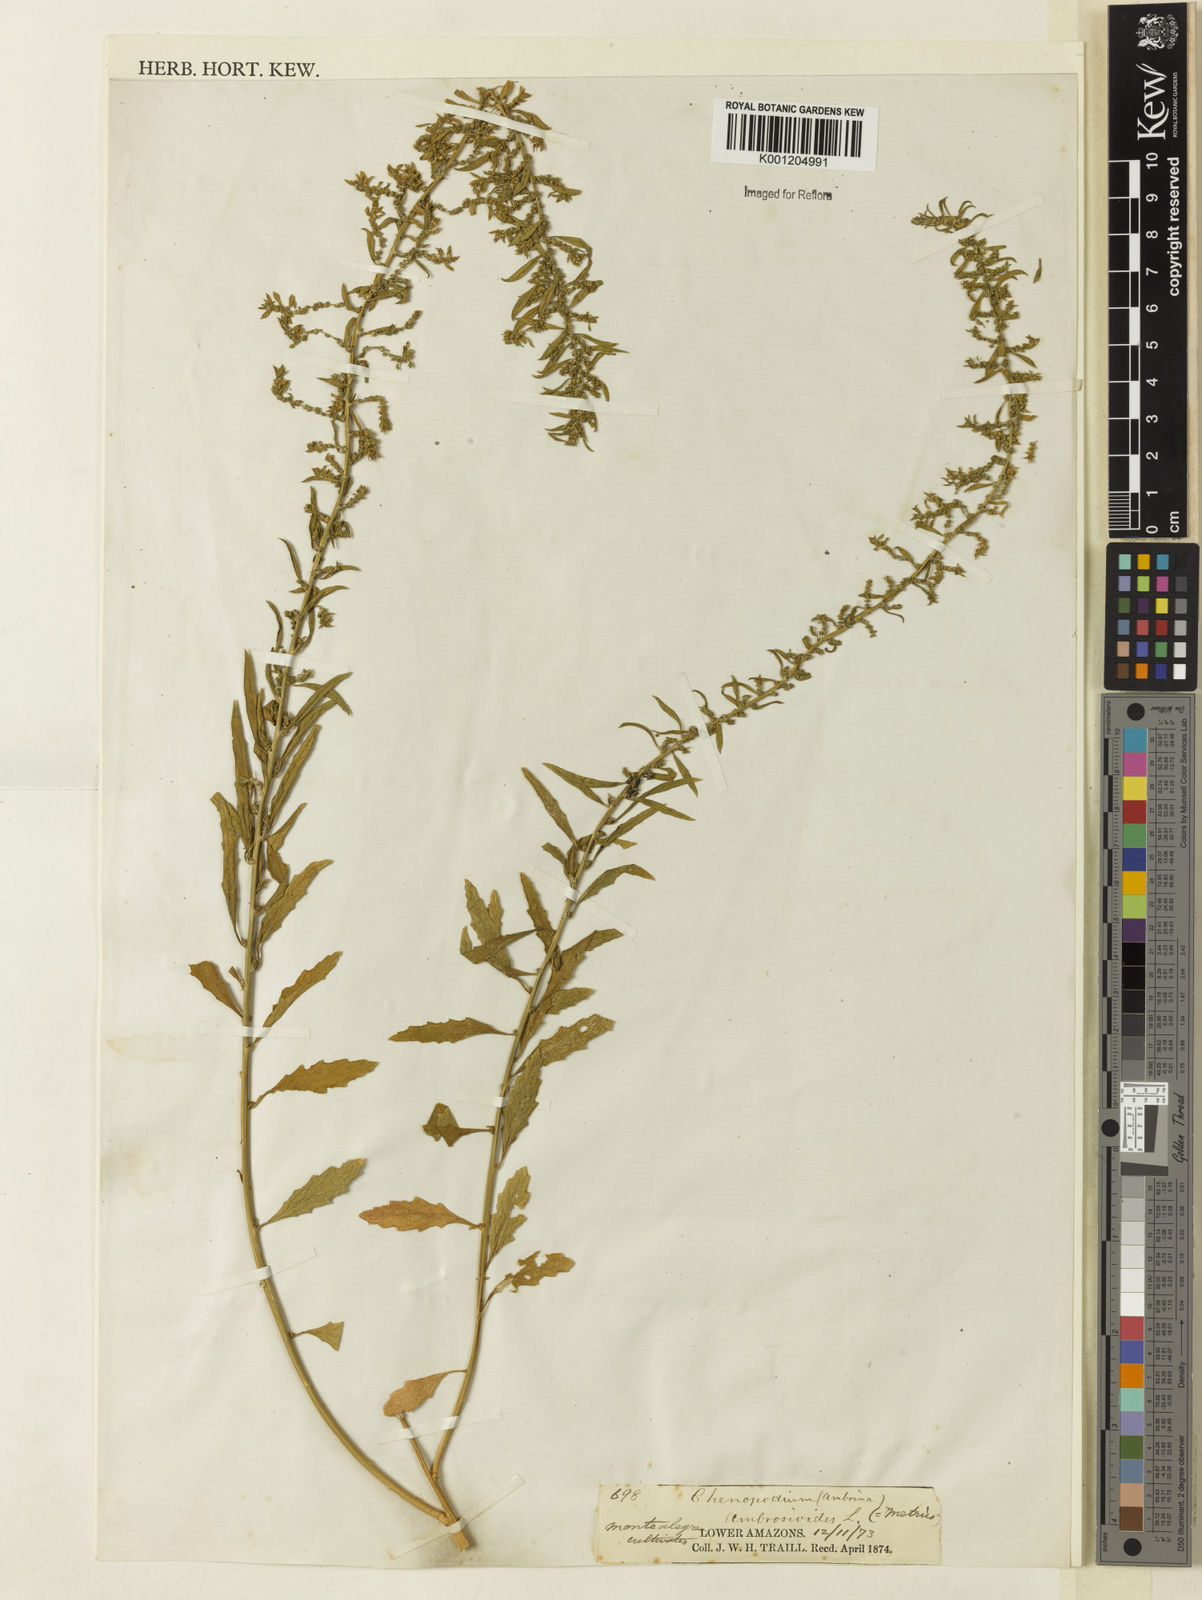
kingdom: Plantae
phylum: Tracheophyta
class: Magnoliopsida
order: Caryophyllales
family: Amaranthaceae
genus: Dysphania
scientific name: Dysphania ambrosioides
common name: Wormseed
